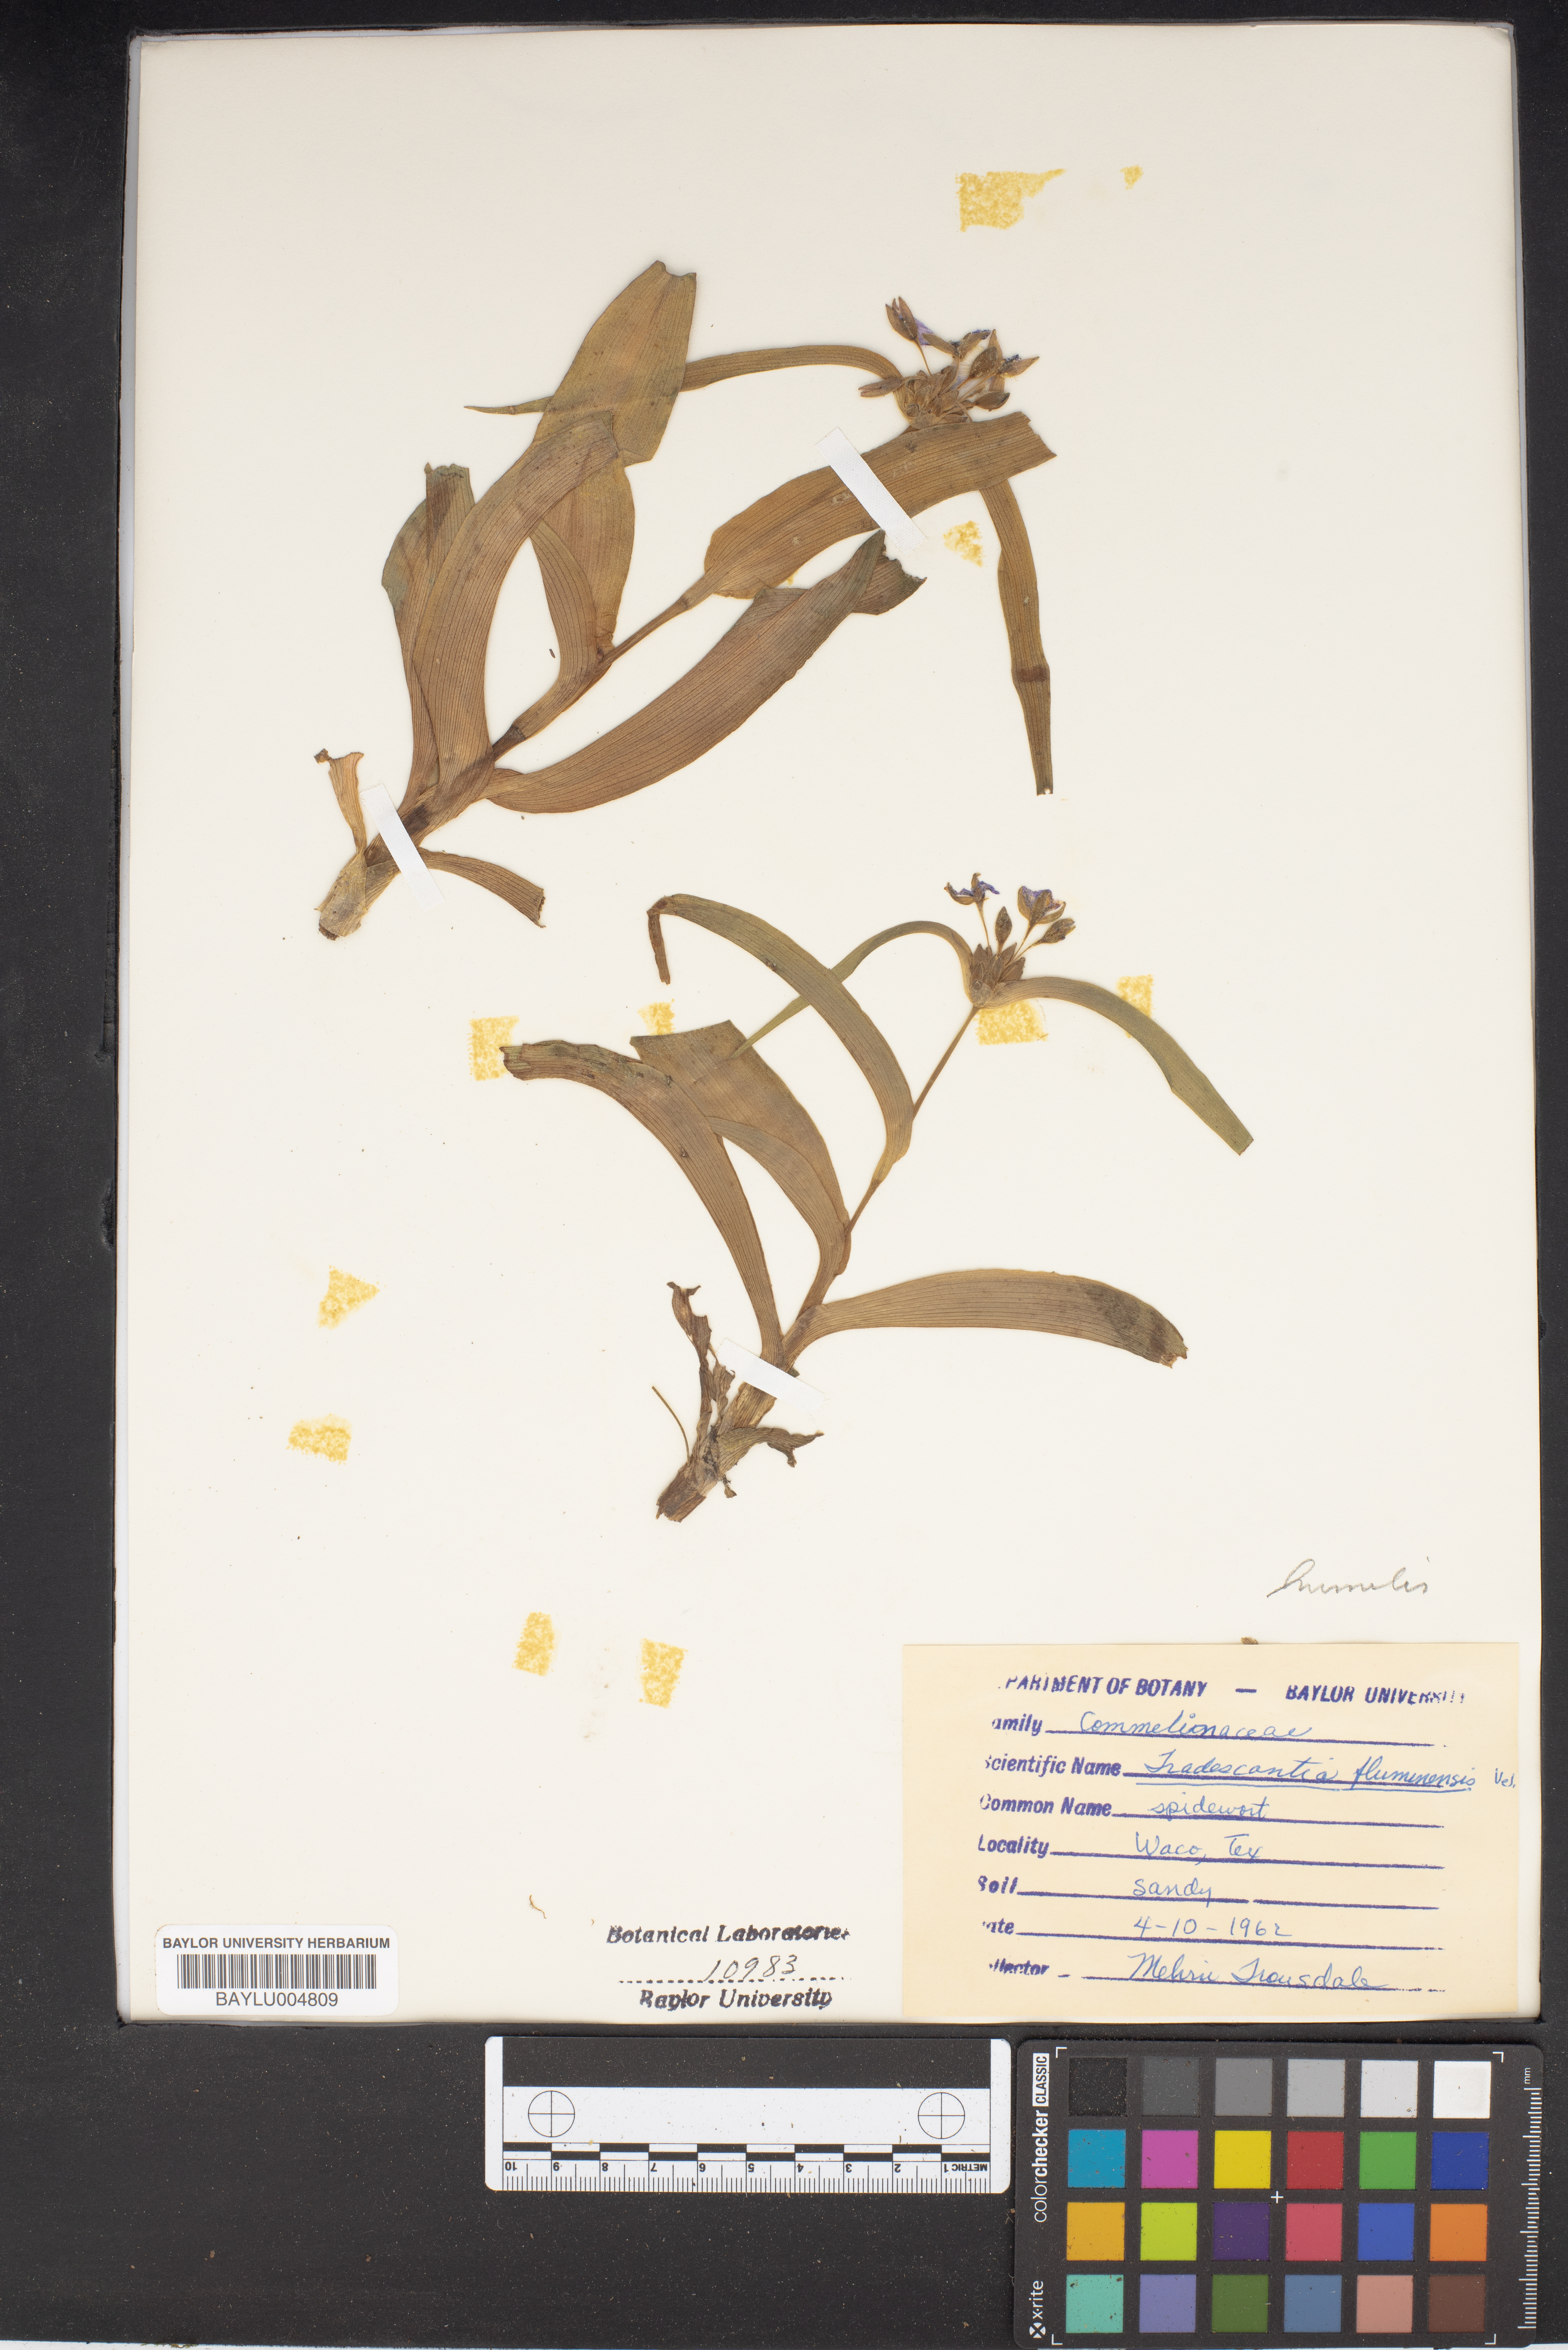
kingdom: Plantae
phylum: Tracheophyta
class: Liliopsida
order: Commelinales
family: Commelinaceae
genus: Tradescantia
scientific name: Tradescantia fluminensis
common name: Wandering-jew
